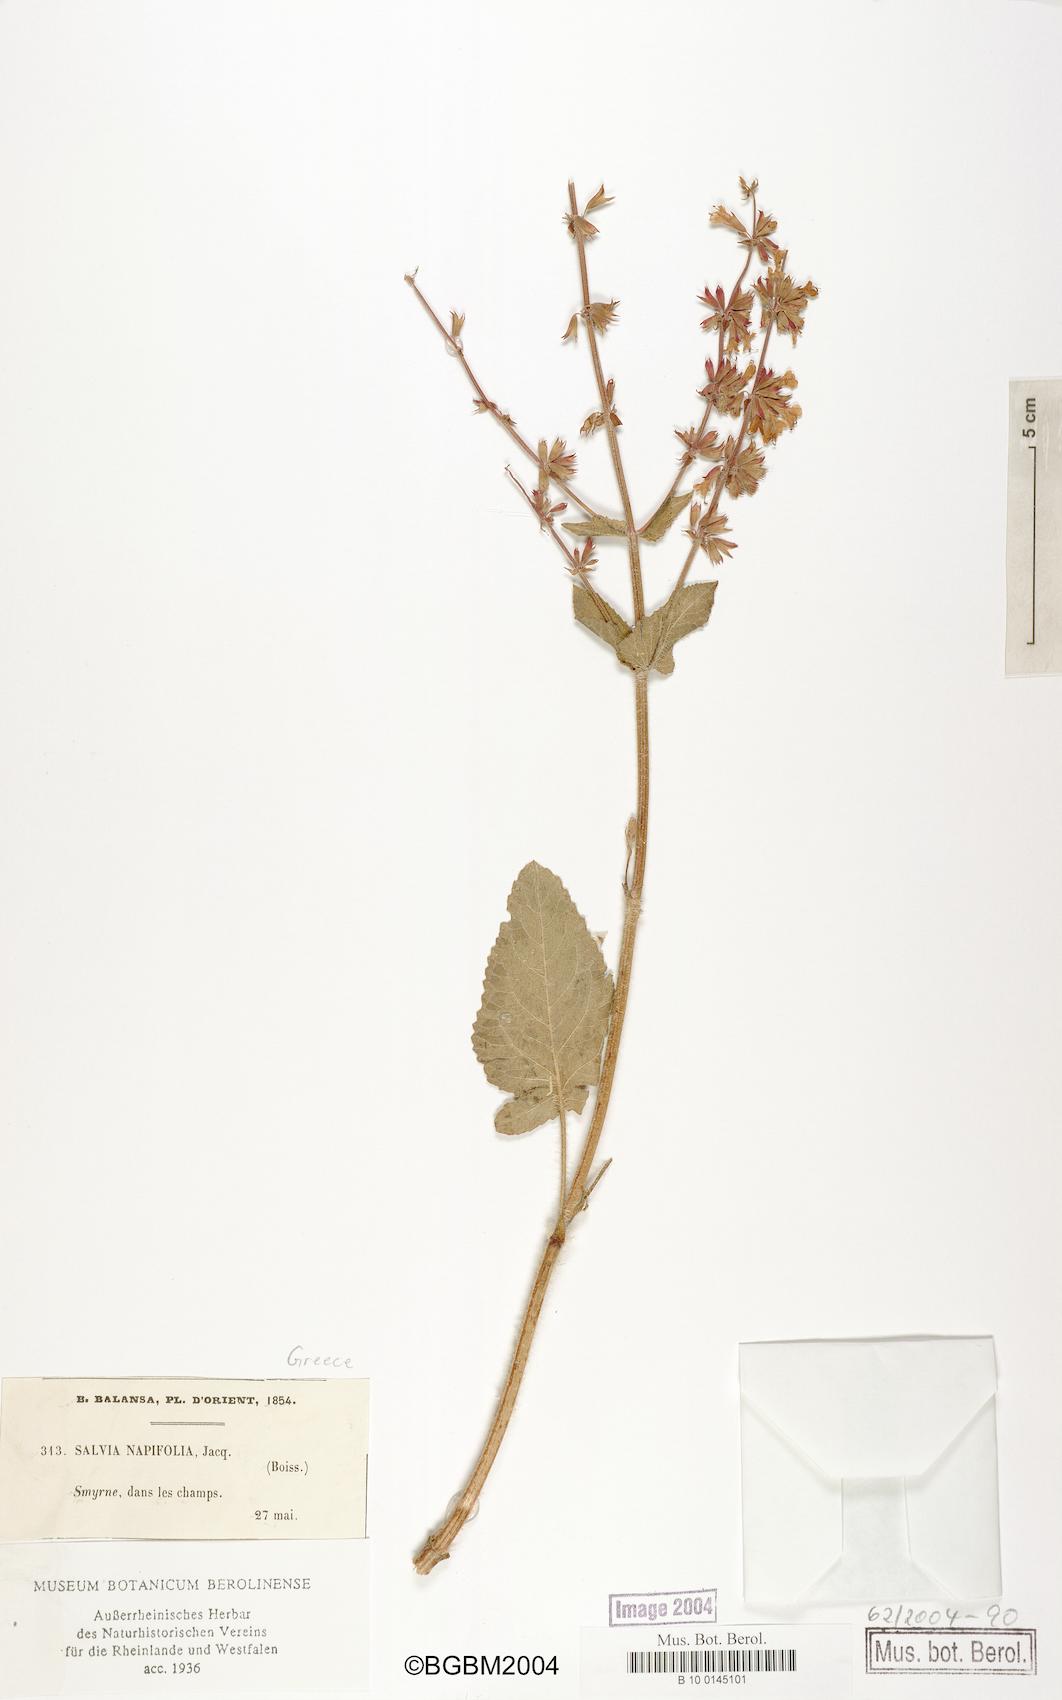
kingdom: Plantae
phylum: Tracheophyta
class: Magnoliopsida
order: Lamiales
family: Lamiaceae
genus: Salvia
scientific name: Salvia napifolia
